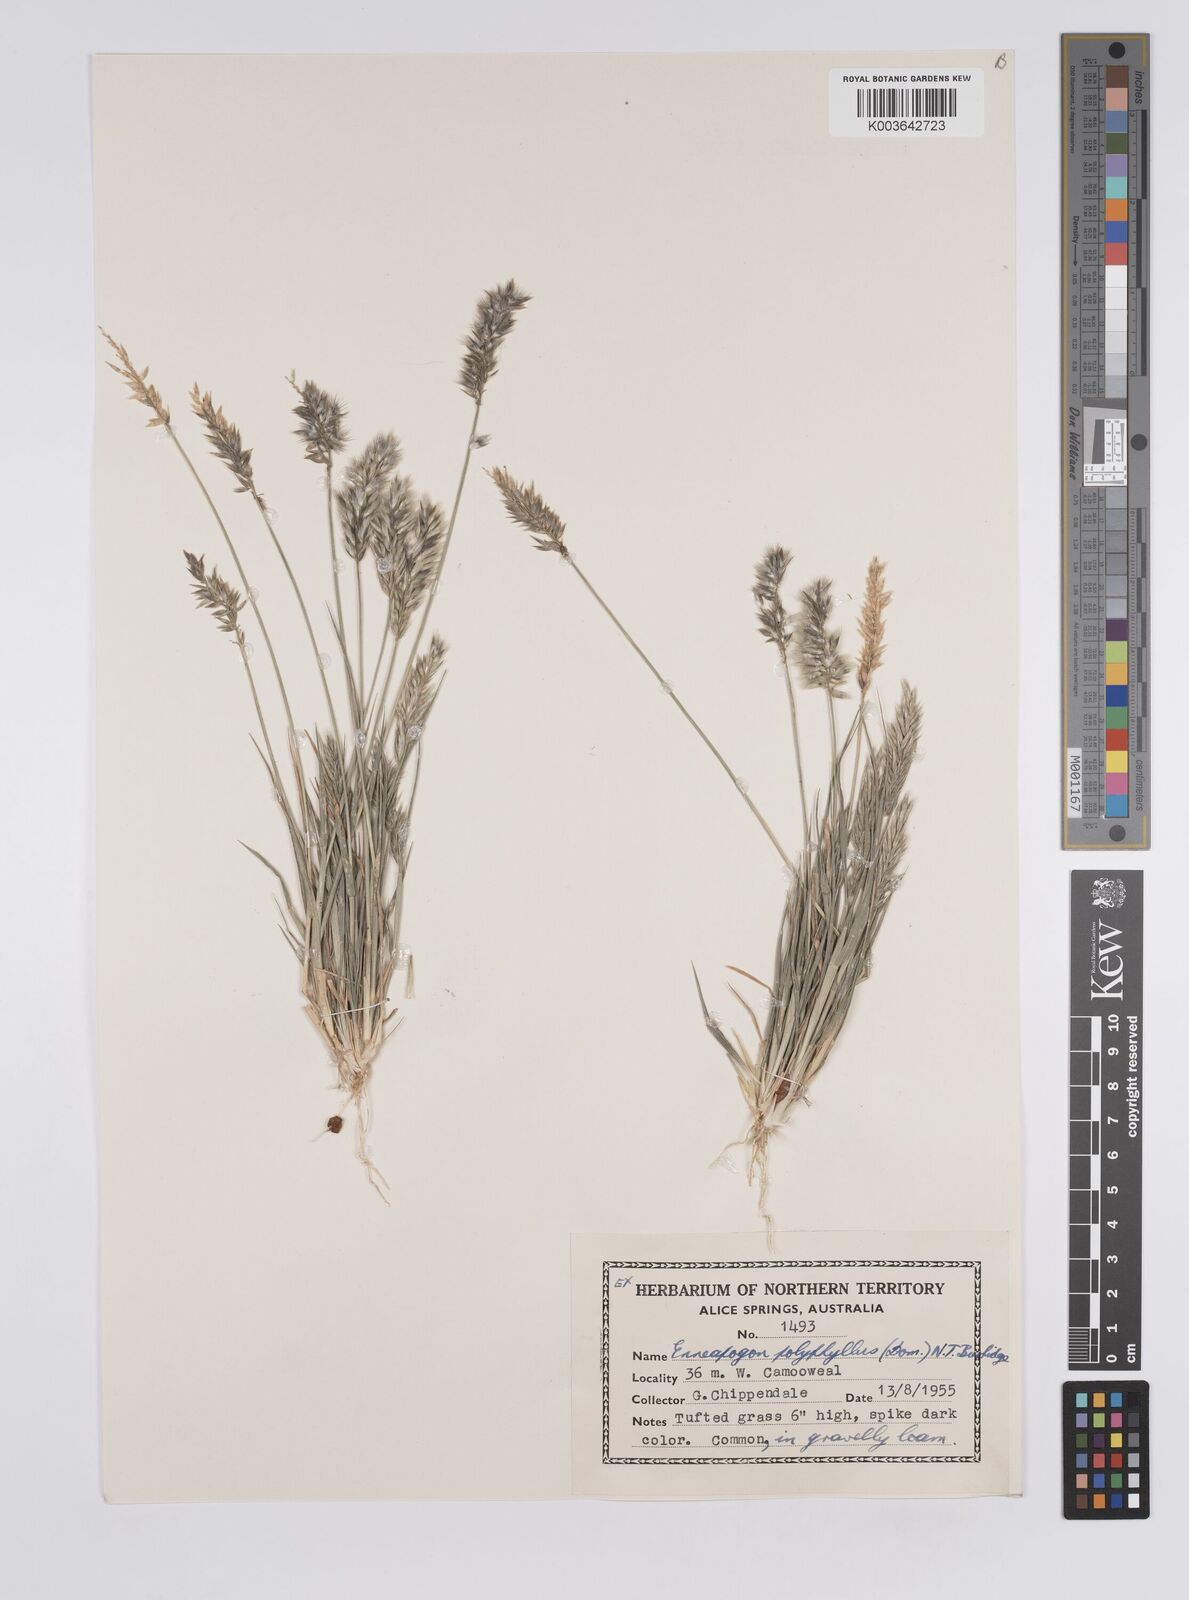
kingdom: Plantae
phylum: Tracheophyta
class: Liliopsida
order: Poales
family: Poaceae
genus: Enneapogon
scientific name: Enneapogon polyphyllus
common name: Leafy nineawn
